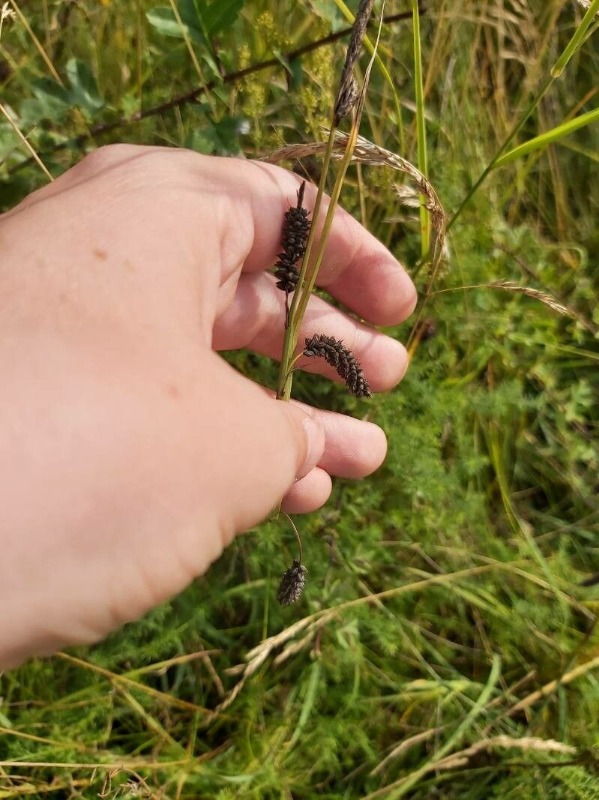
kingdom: Plantae
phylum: Tracheophyta
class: Liliopsida
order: Poales
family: Cyperaceae
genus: Carex
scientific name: Carex flacca
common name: Blågrøn star
